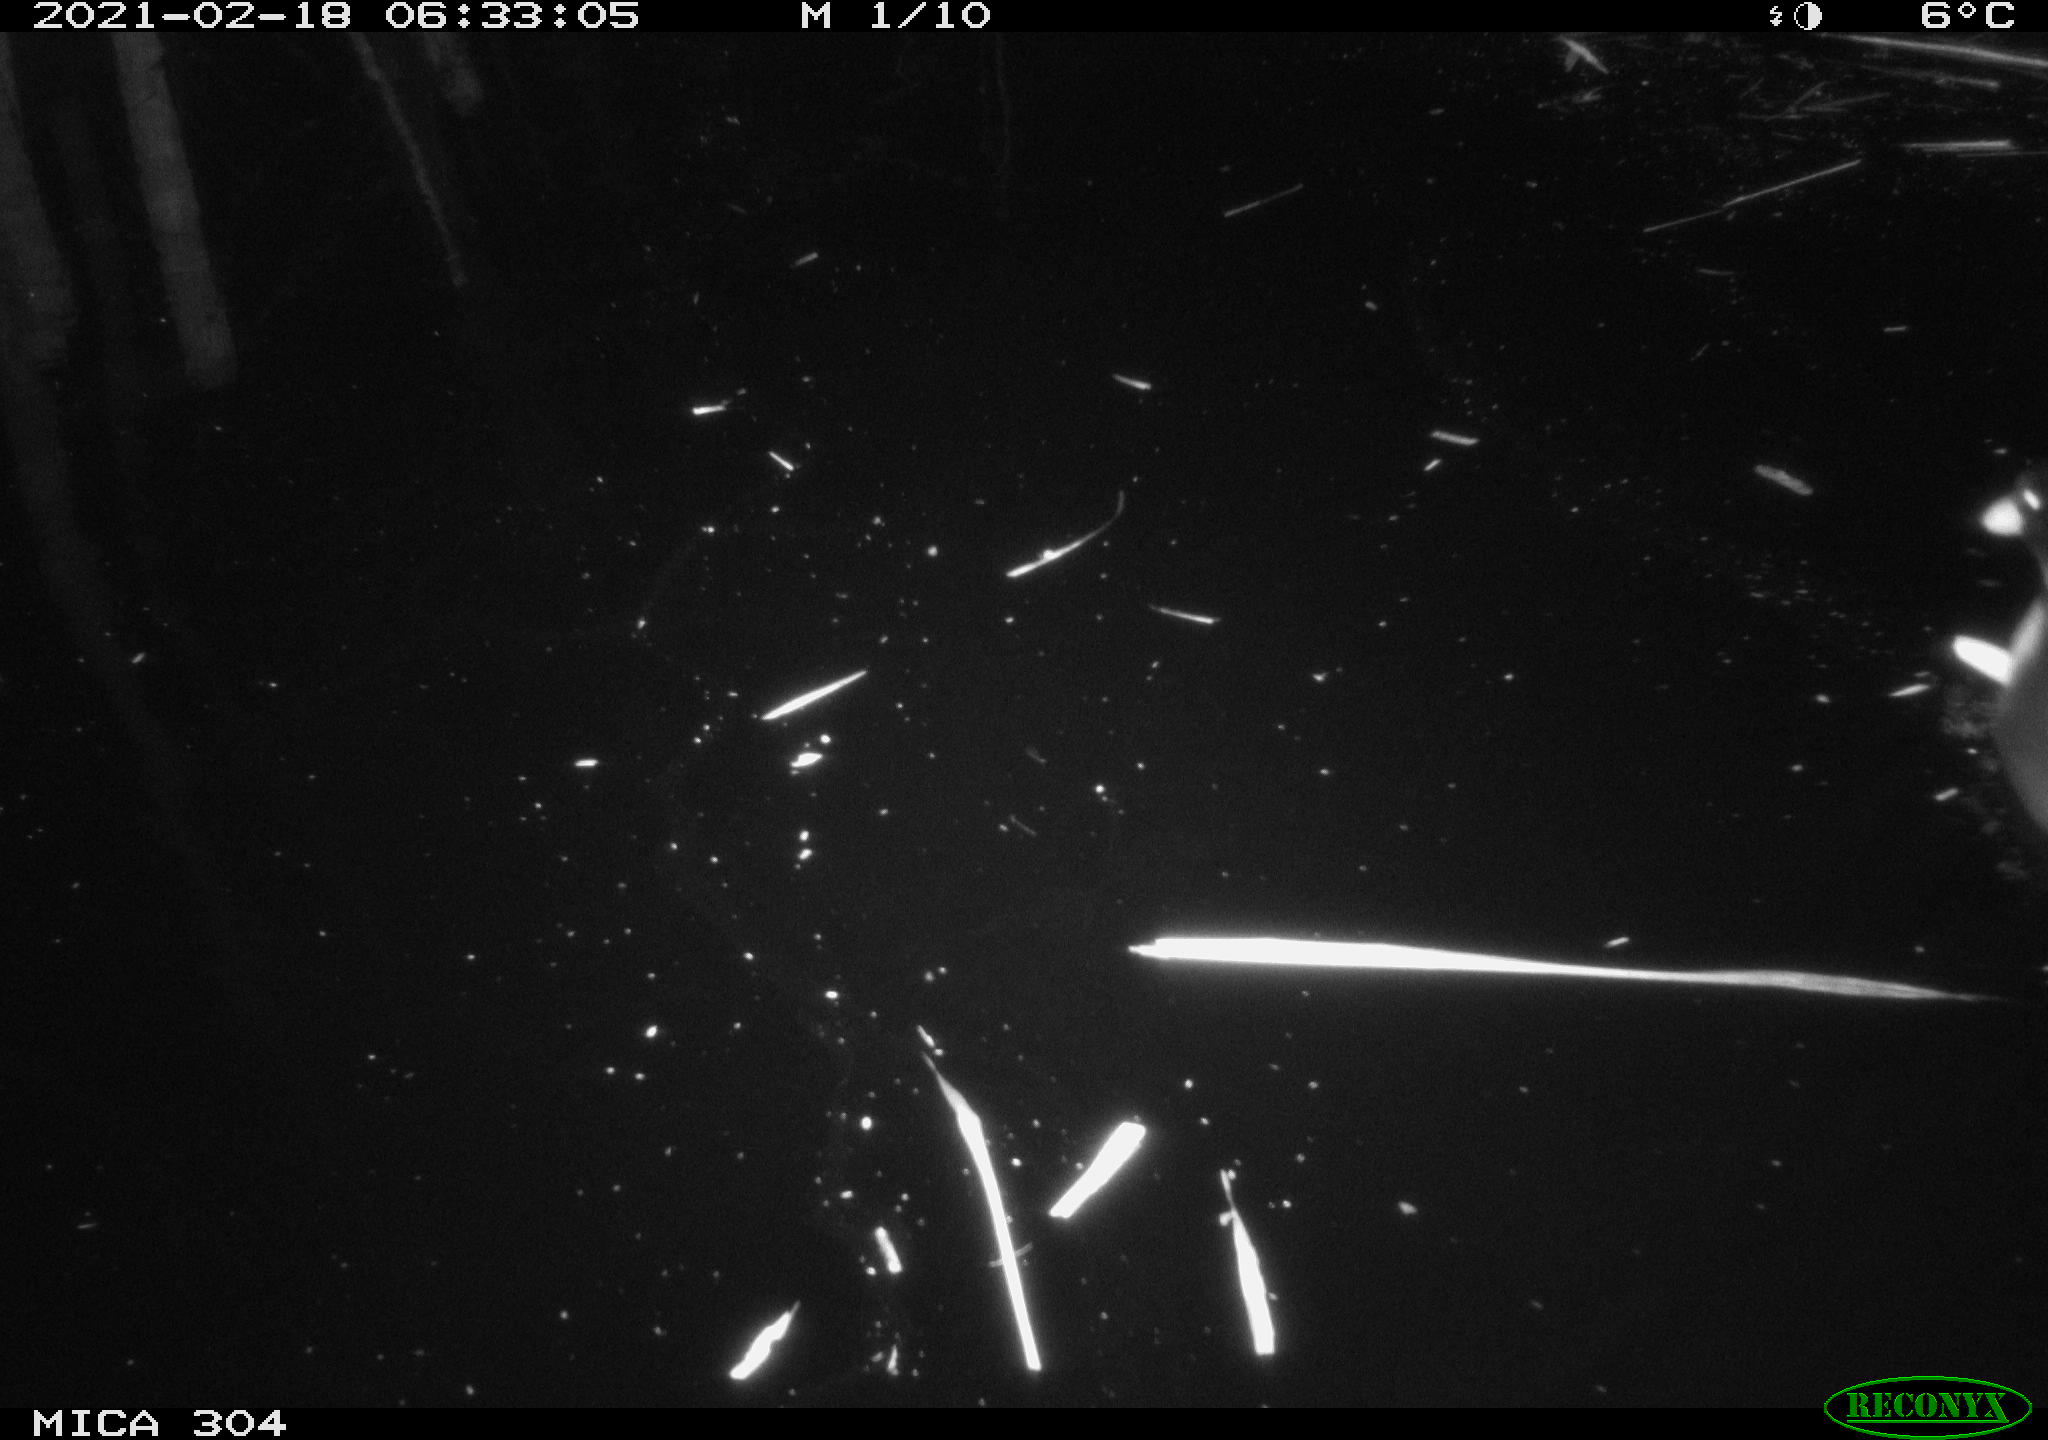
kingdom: Animalia
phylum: Chordata
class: Aves
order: Gruiformes
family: Rallidae
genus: Fulica
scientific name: Fulica atra
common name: Eurasian coot
